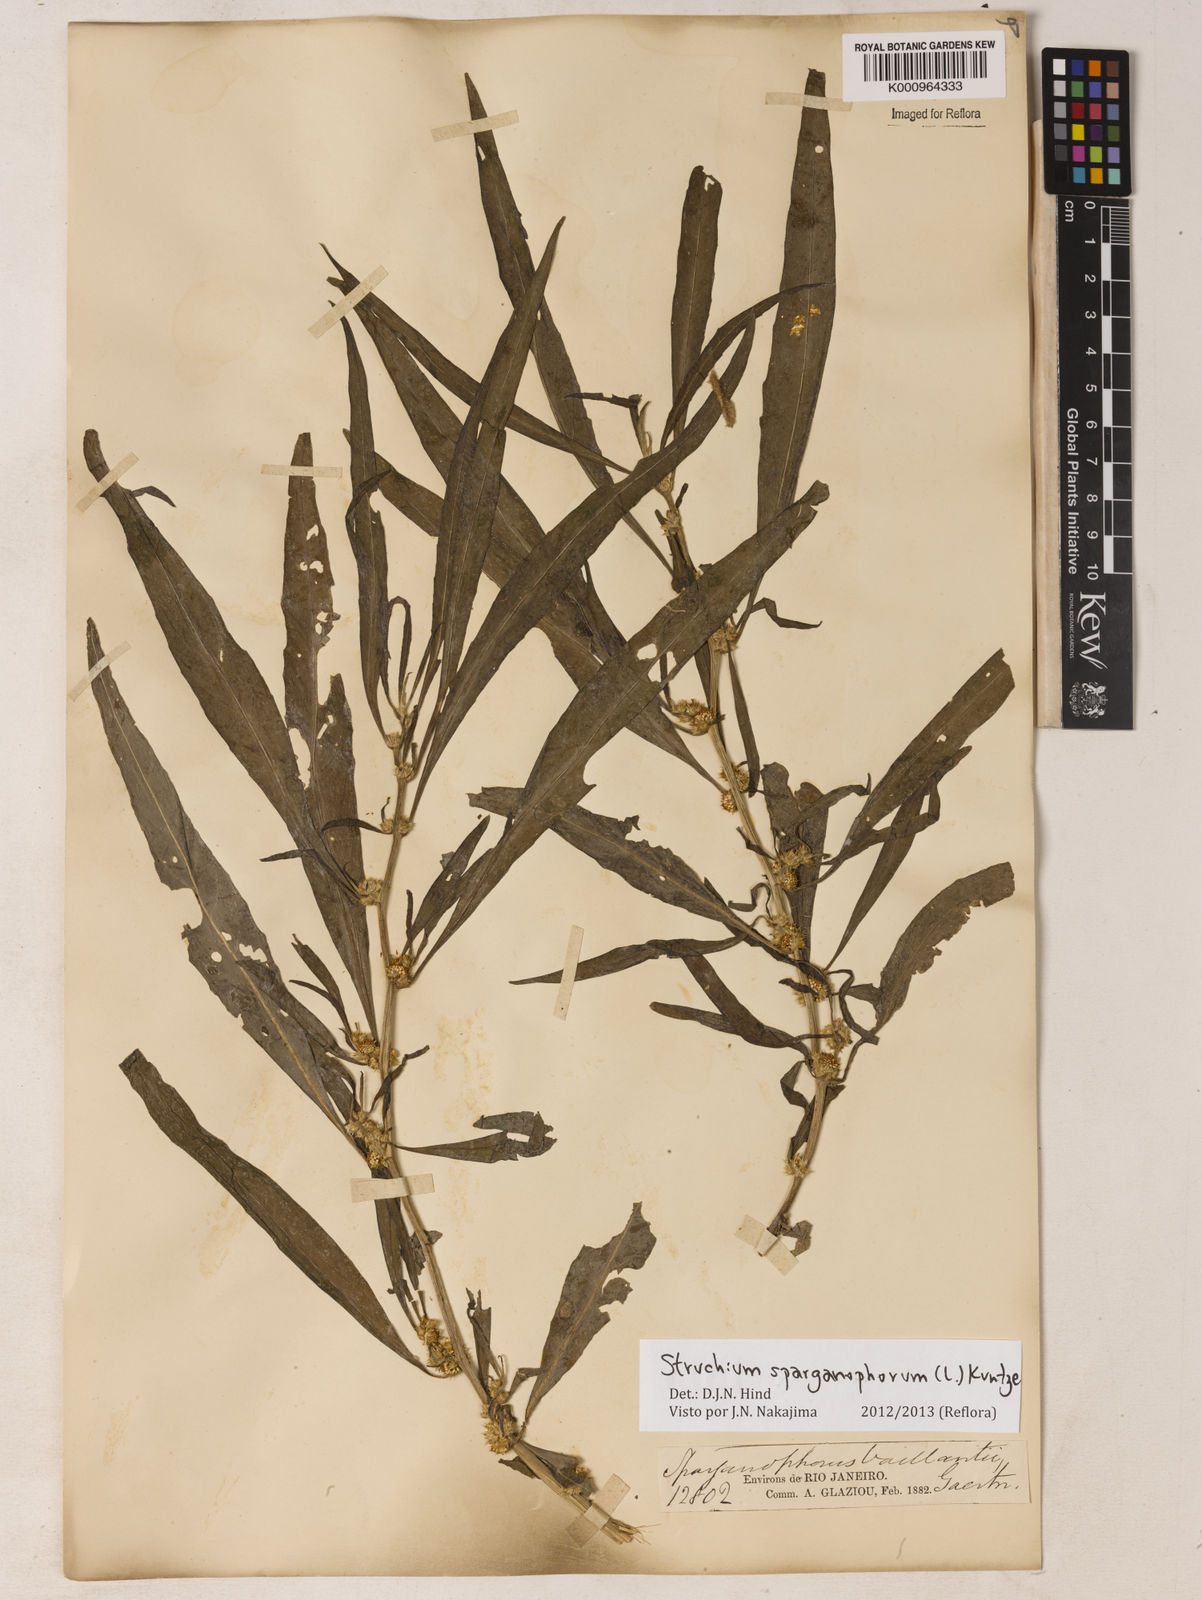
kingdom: Plantae
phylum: Tracheophyta
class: Magnoliopsida
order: Asterales
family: Asteraceae
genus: Struchium
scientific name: Struchium sparganophorum
